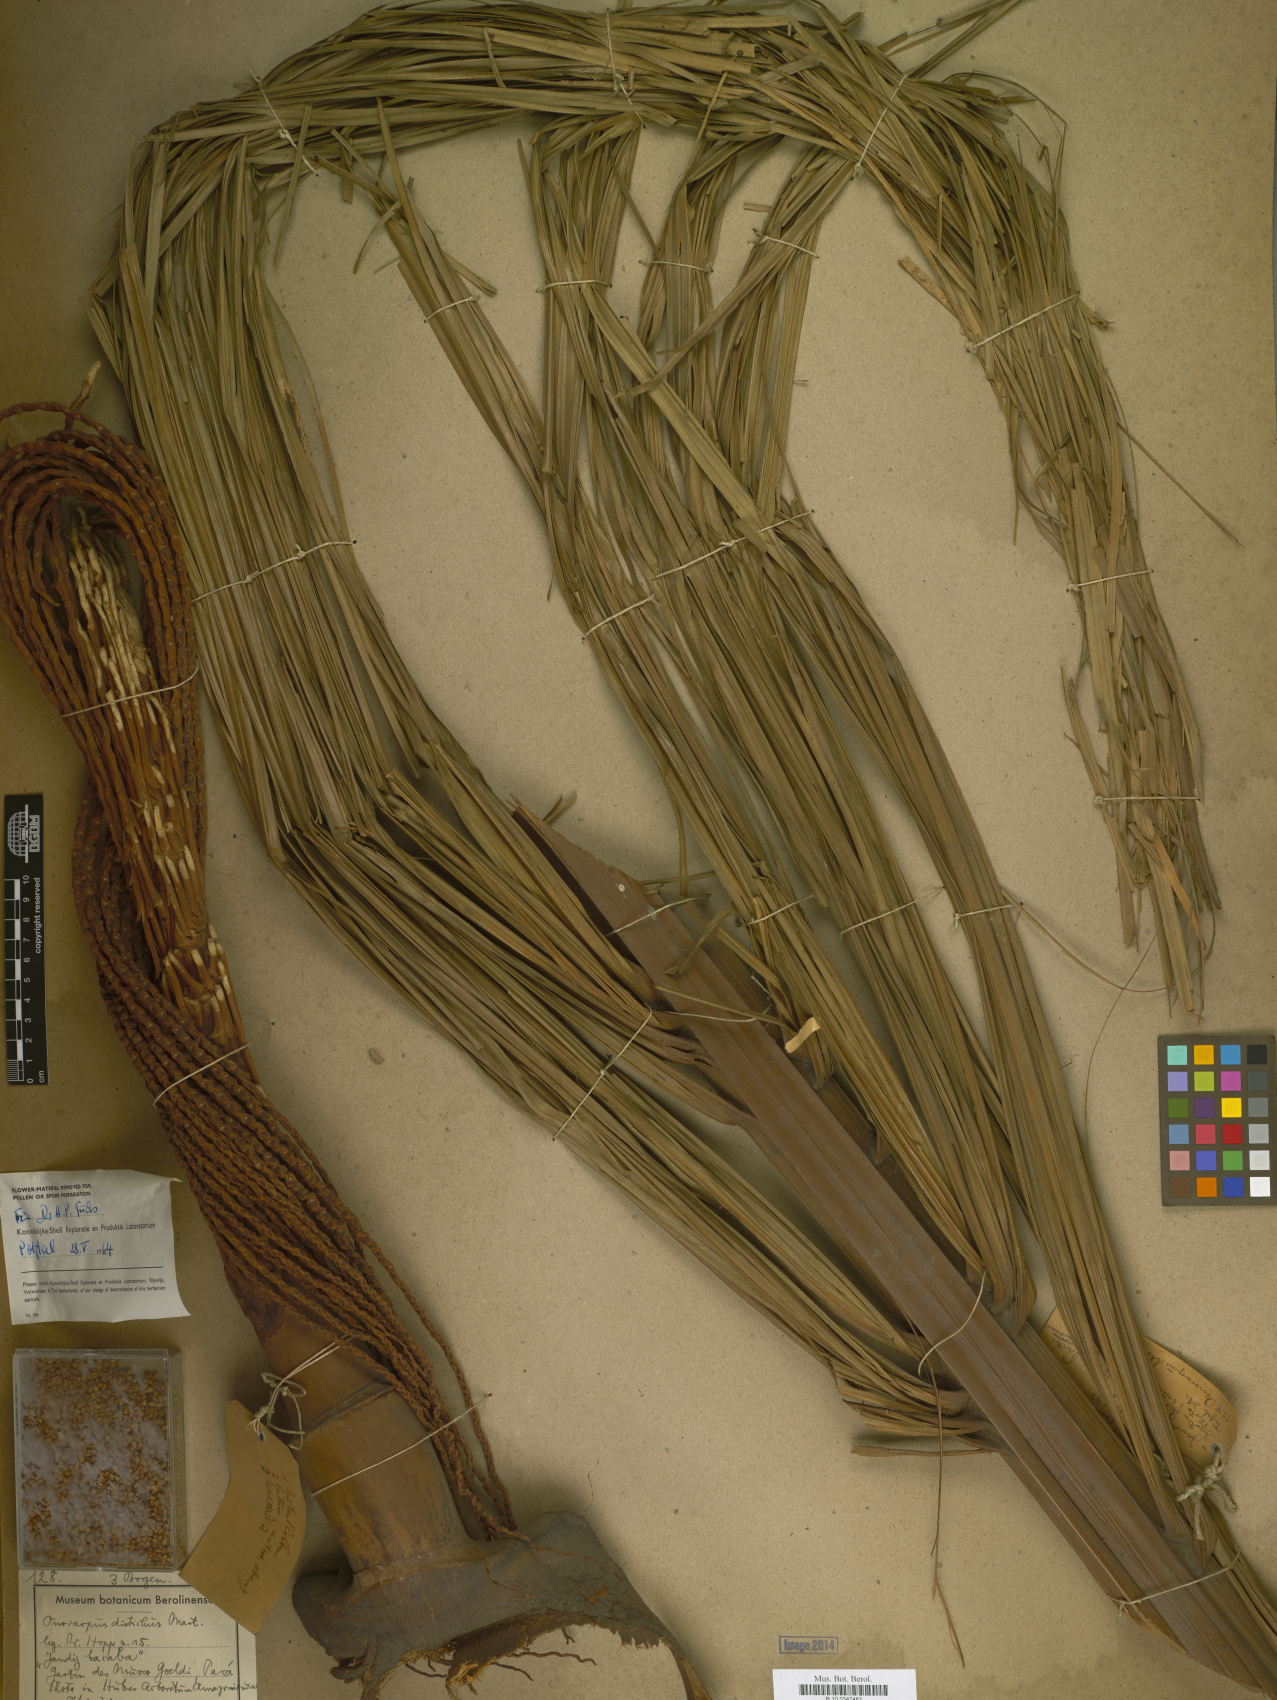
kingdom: Plantae
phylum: Tracheophyta
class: Liliopsida
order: Arecales
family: Arecaceae
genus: Oenocarpus
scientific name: Oenocarpus distichus
